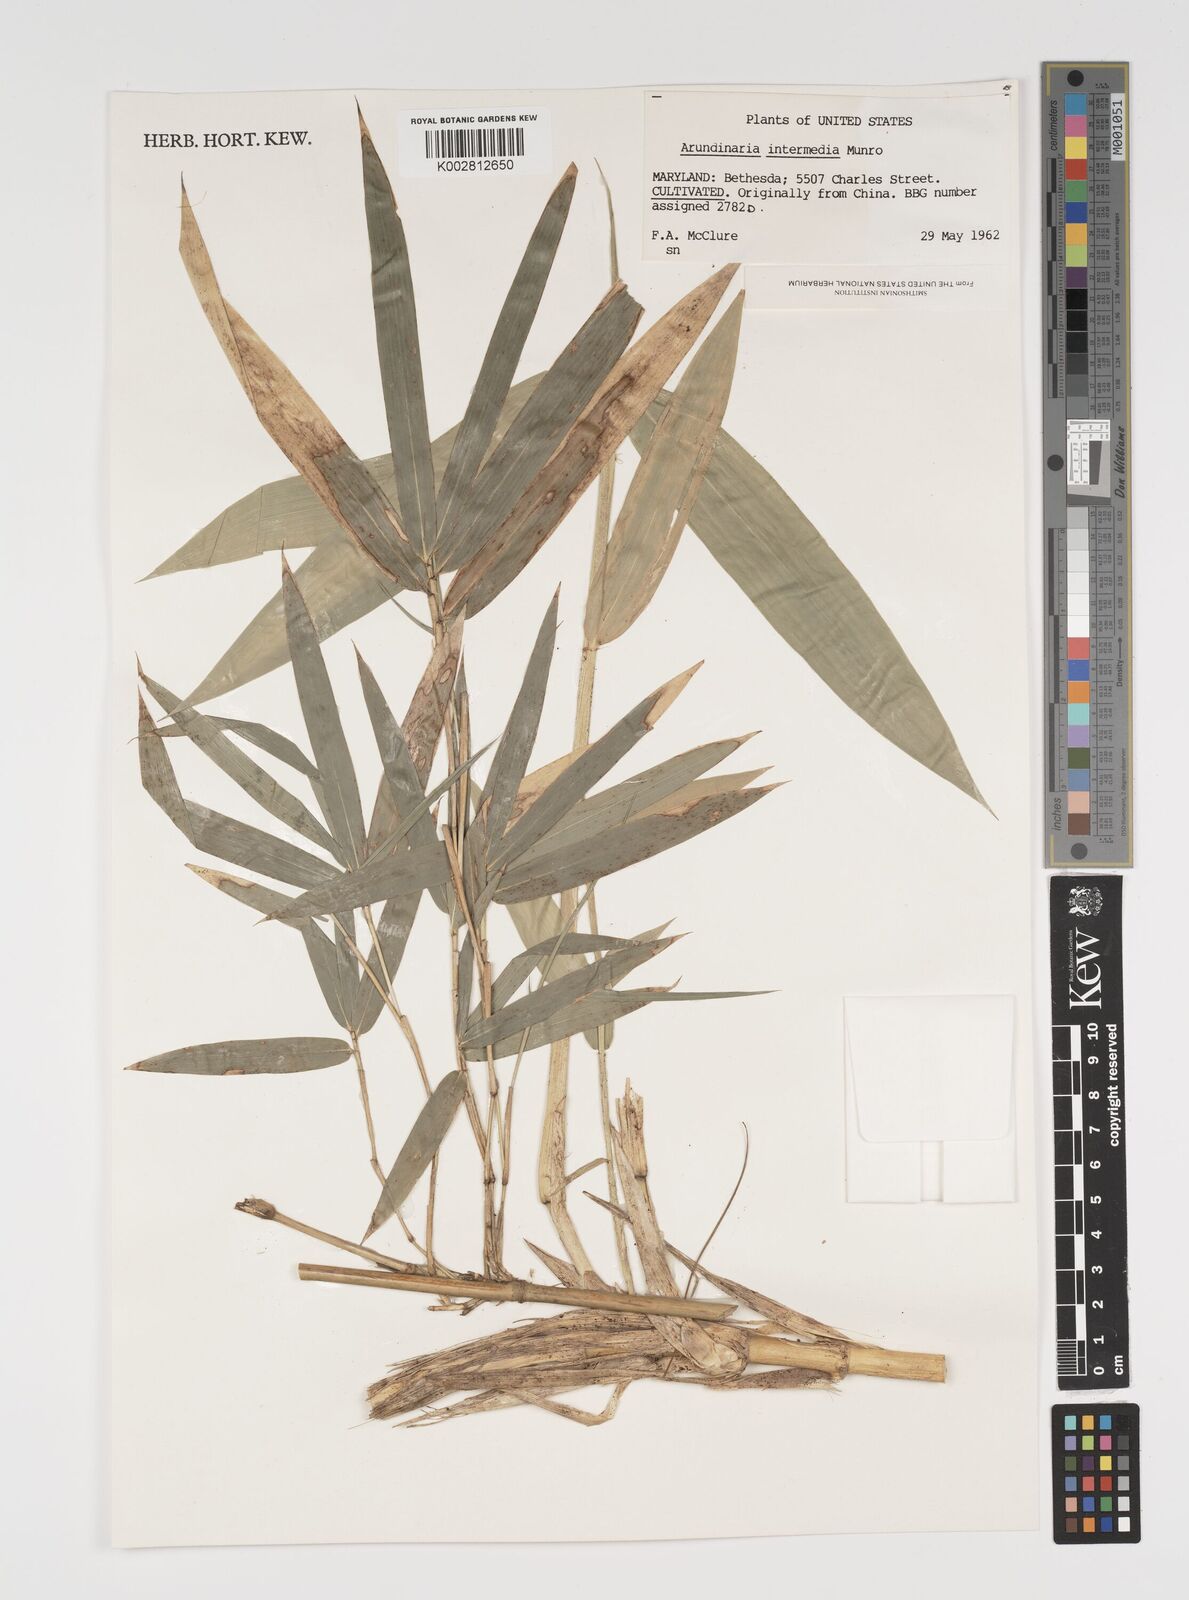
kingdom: Plantae
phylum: Tracheophyta
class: Liliopsida
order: Poales
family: Poaceae
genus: Arundinaria
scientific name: Arundinaria
